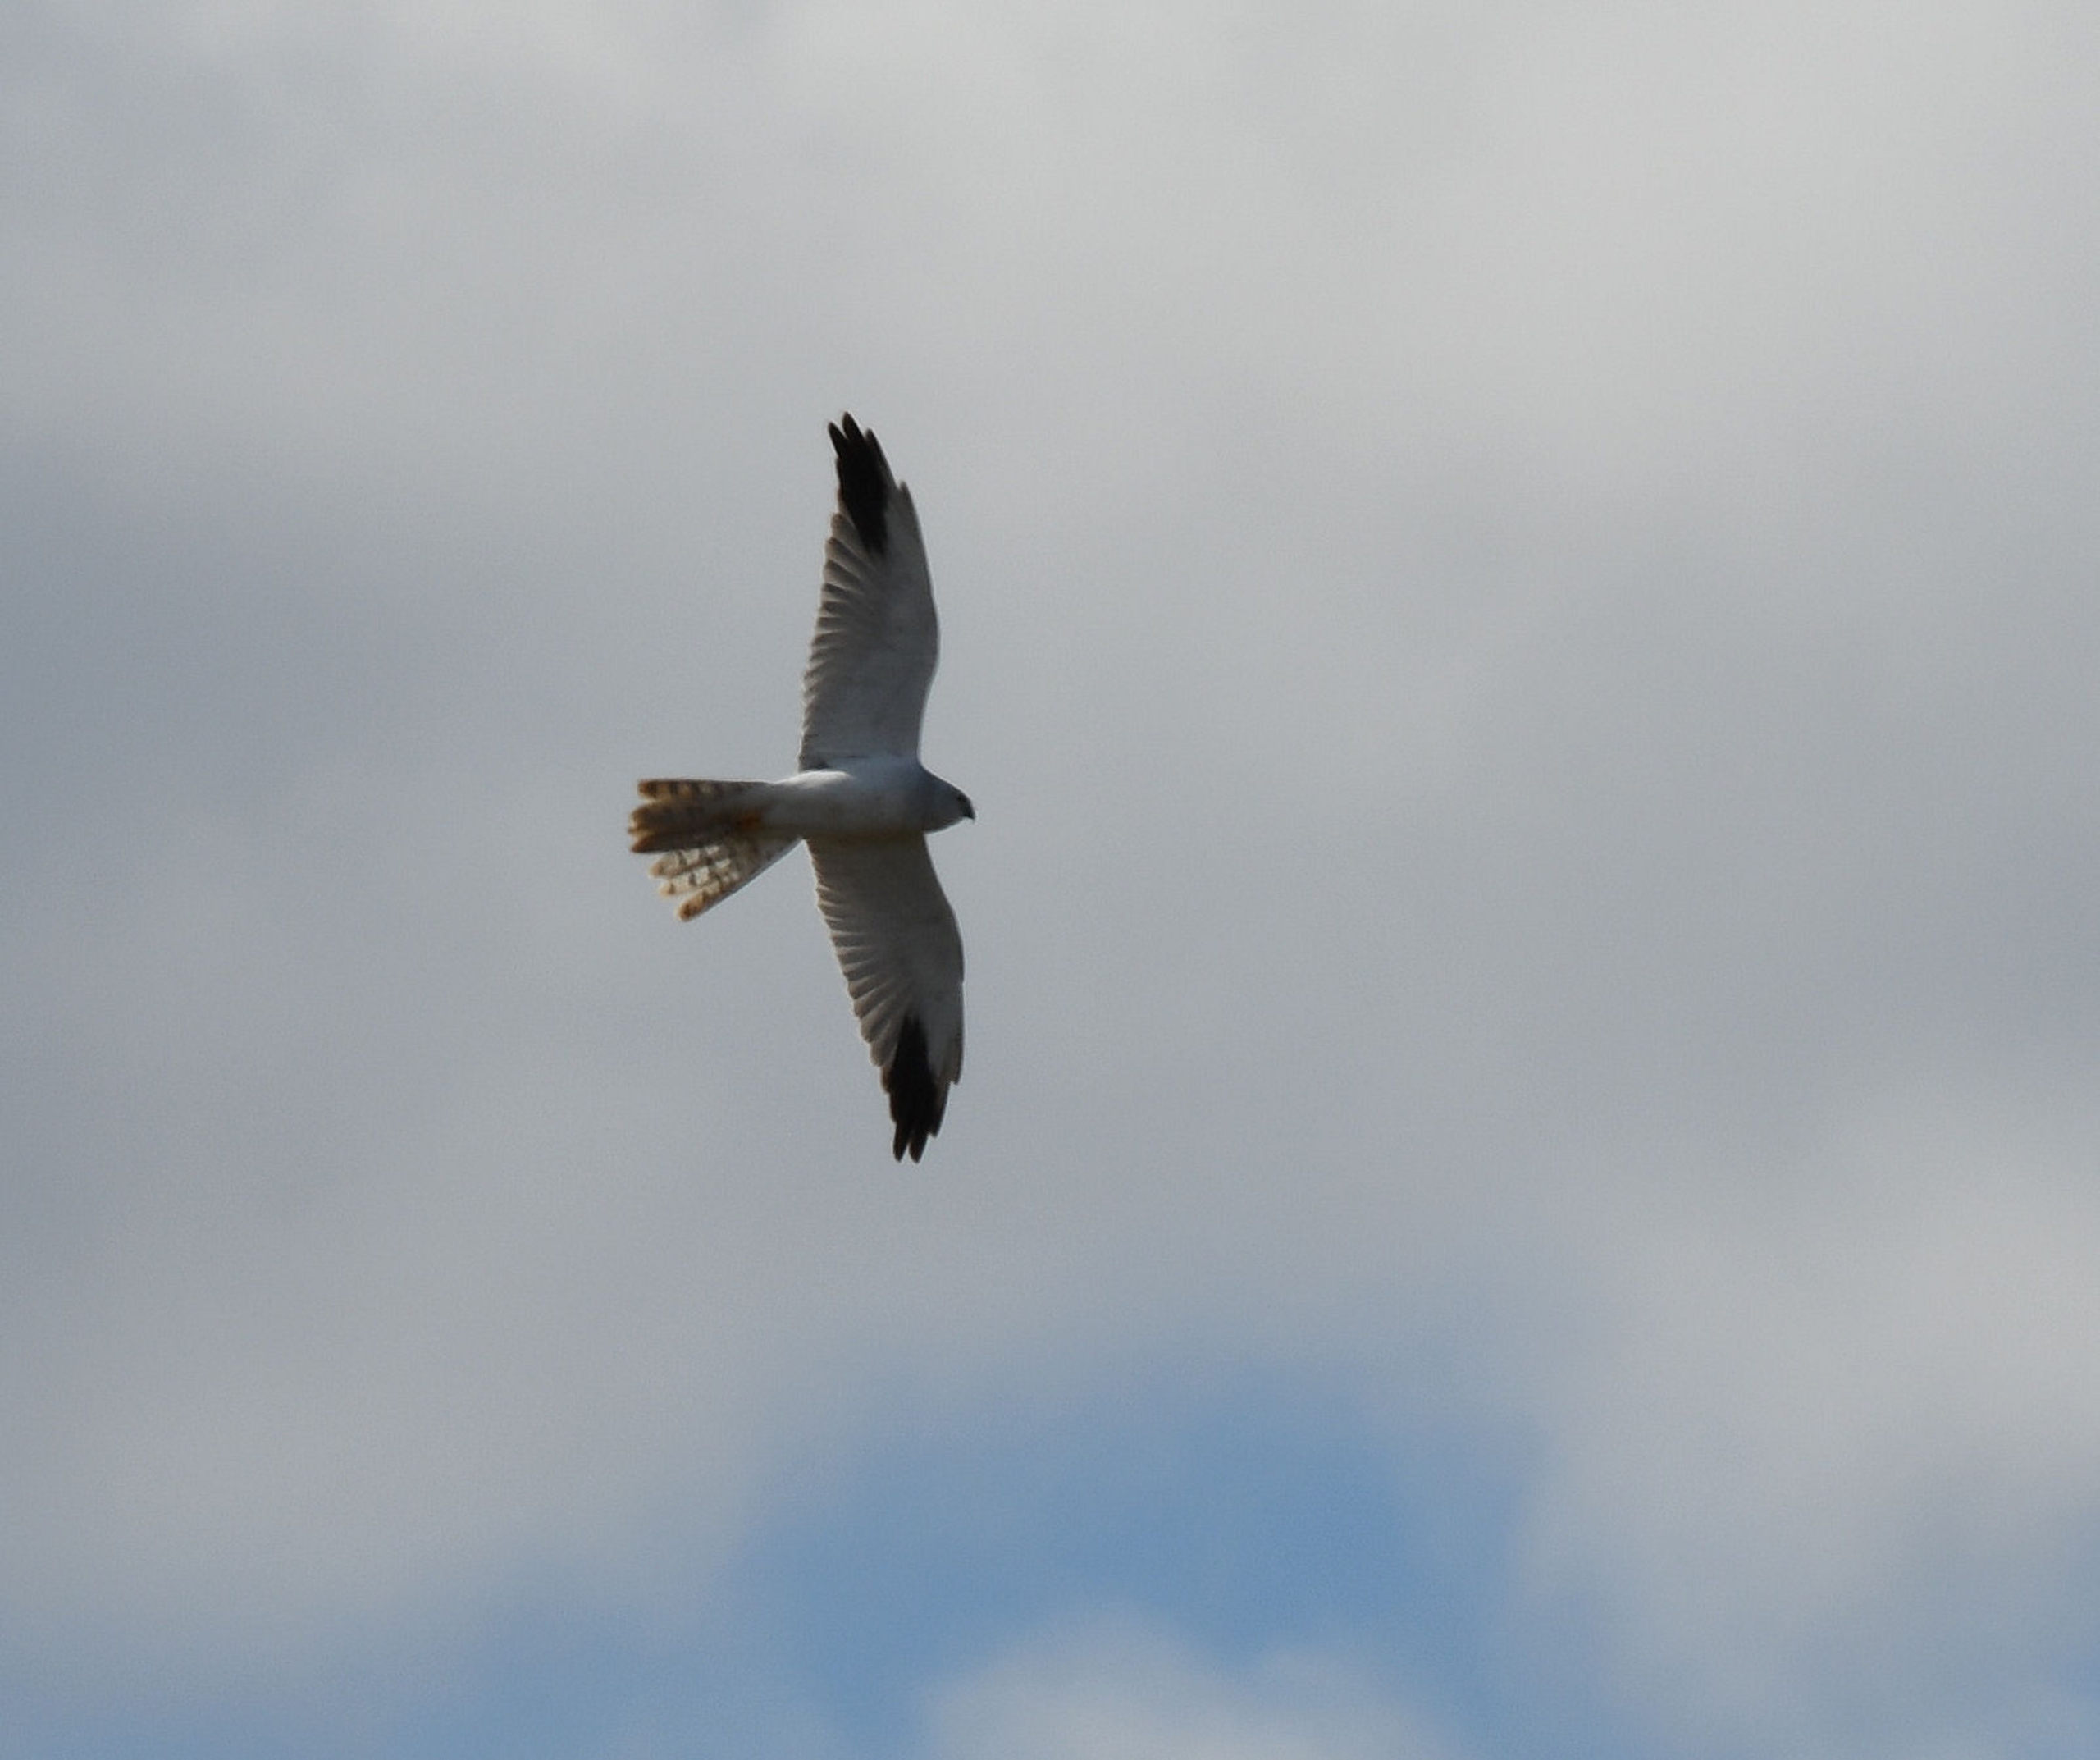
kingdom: Animalia
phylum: Chordata
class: Aves
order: Accipitriformes
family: Accipitridae
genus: Circus
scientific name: Circus macrourus
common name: Steppehøg
